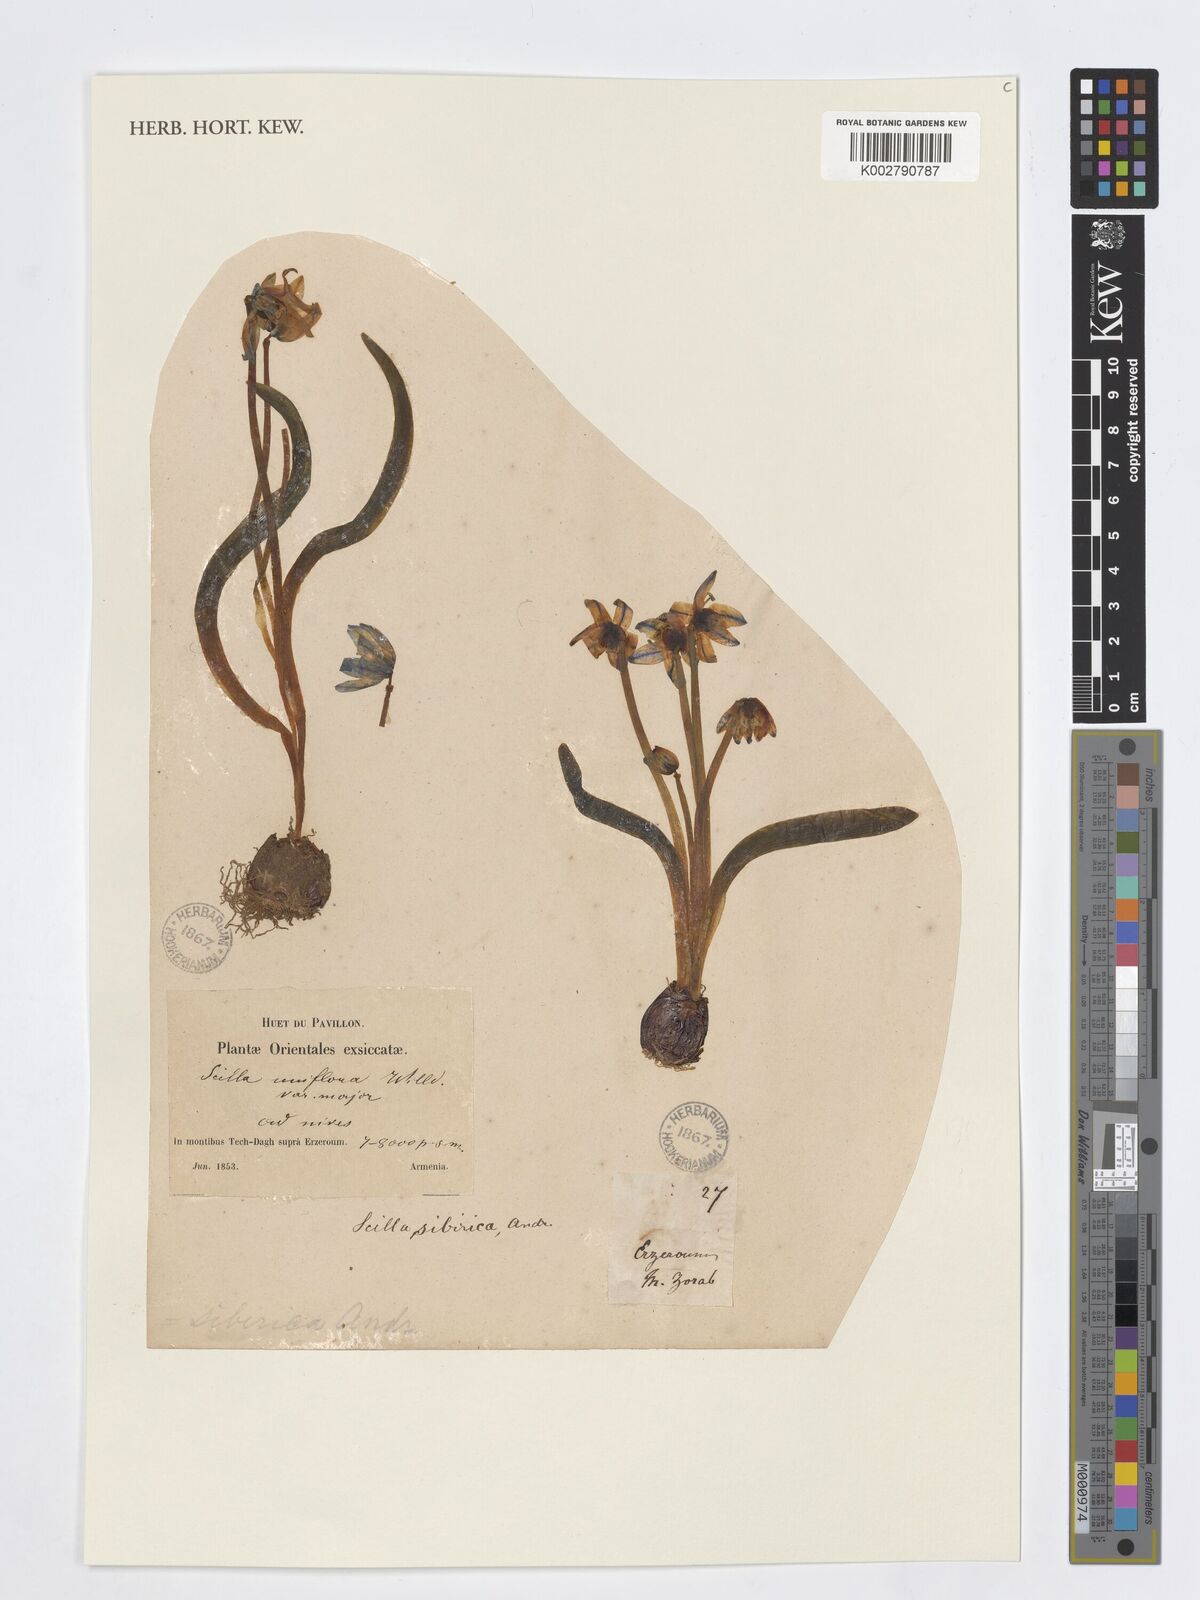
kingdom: Plantae
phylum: Tracheophyta
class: Liliopsida
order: Asparagales
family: Asparagaceae
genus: Scilla
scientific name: Scilla siberica
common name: Siberian squill
